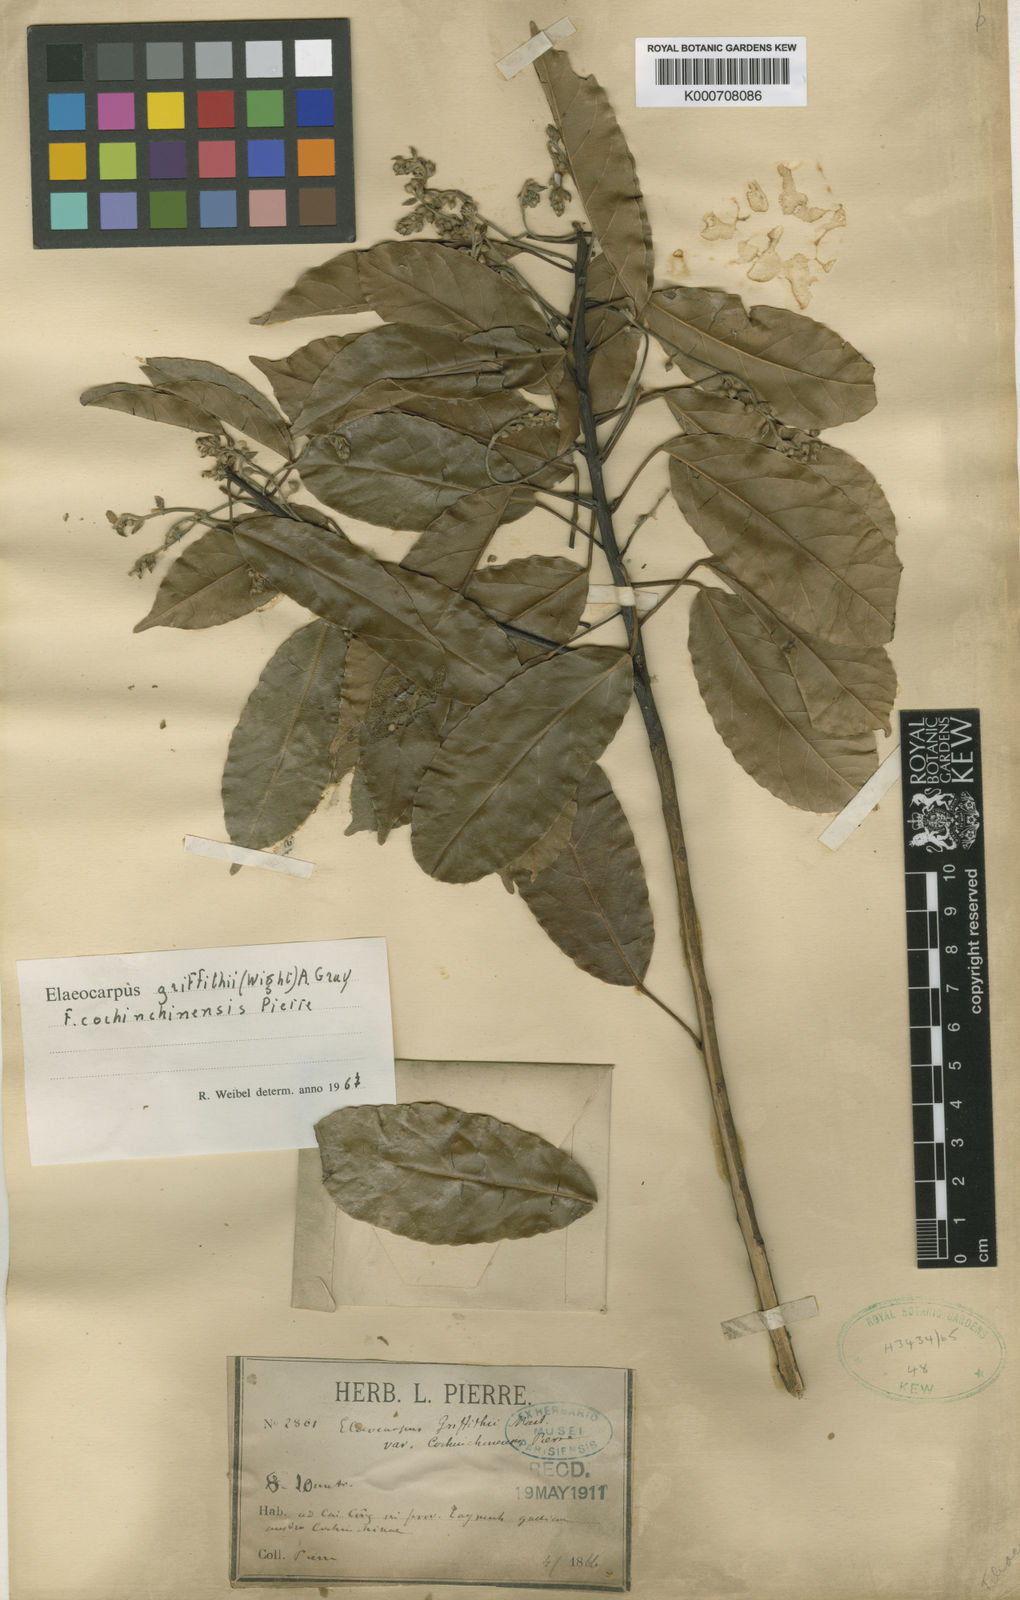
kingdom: Plantae
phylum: Tracheophyta
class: Magnoliopsida
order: Oxalidales
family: Elaeocarpaceae
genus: Elaeocarpus
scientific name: Elaeocarpus griffithii
